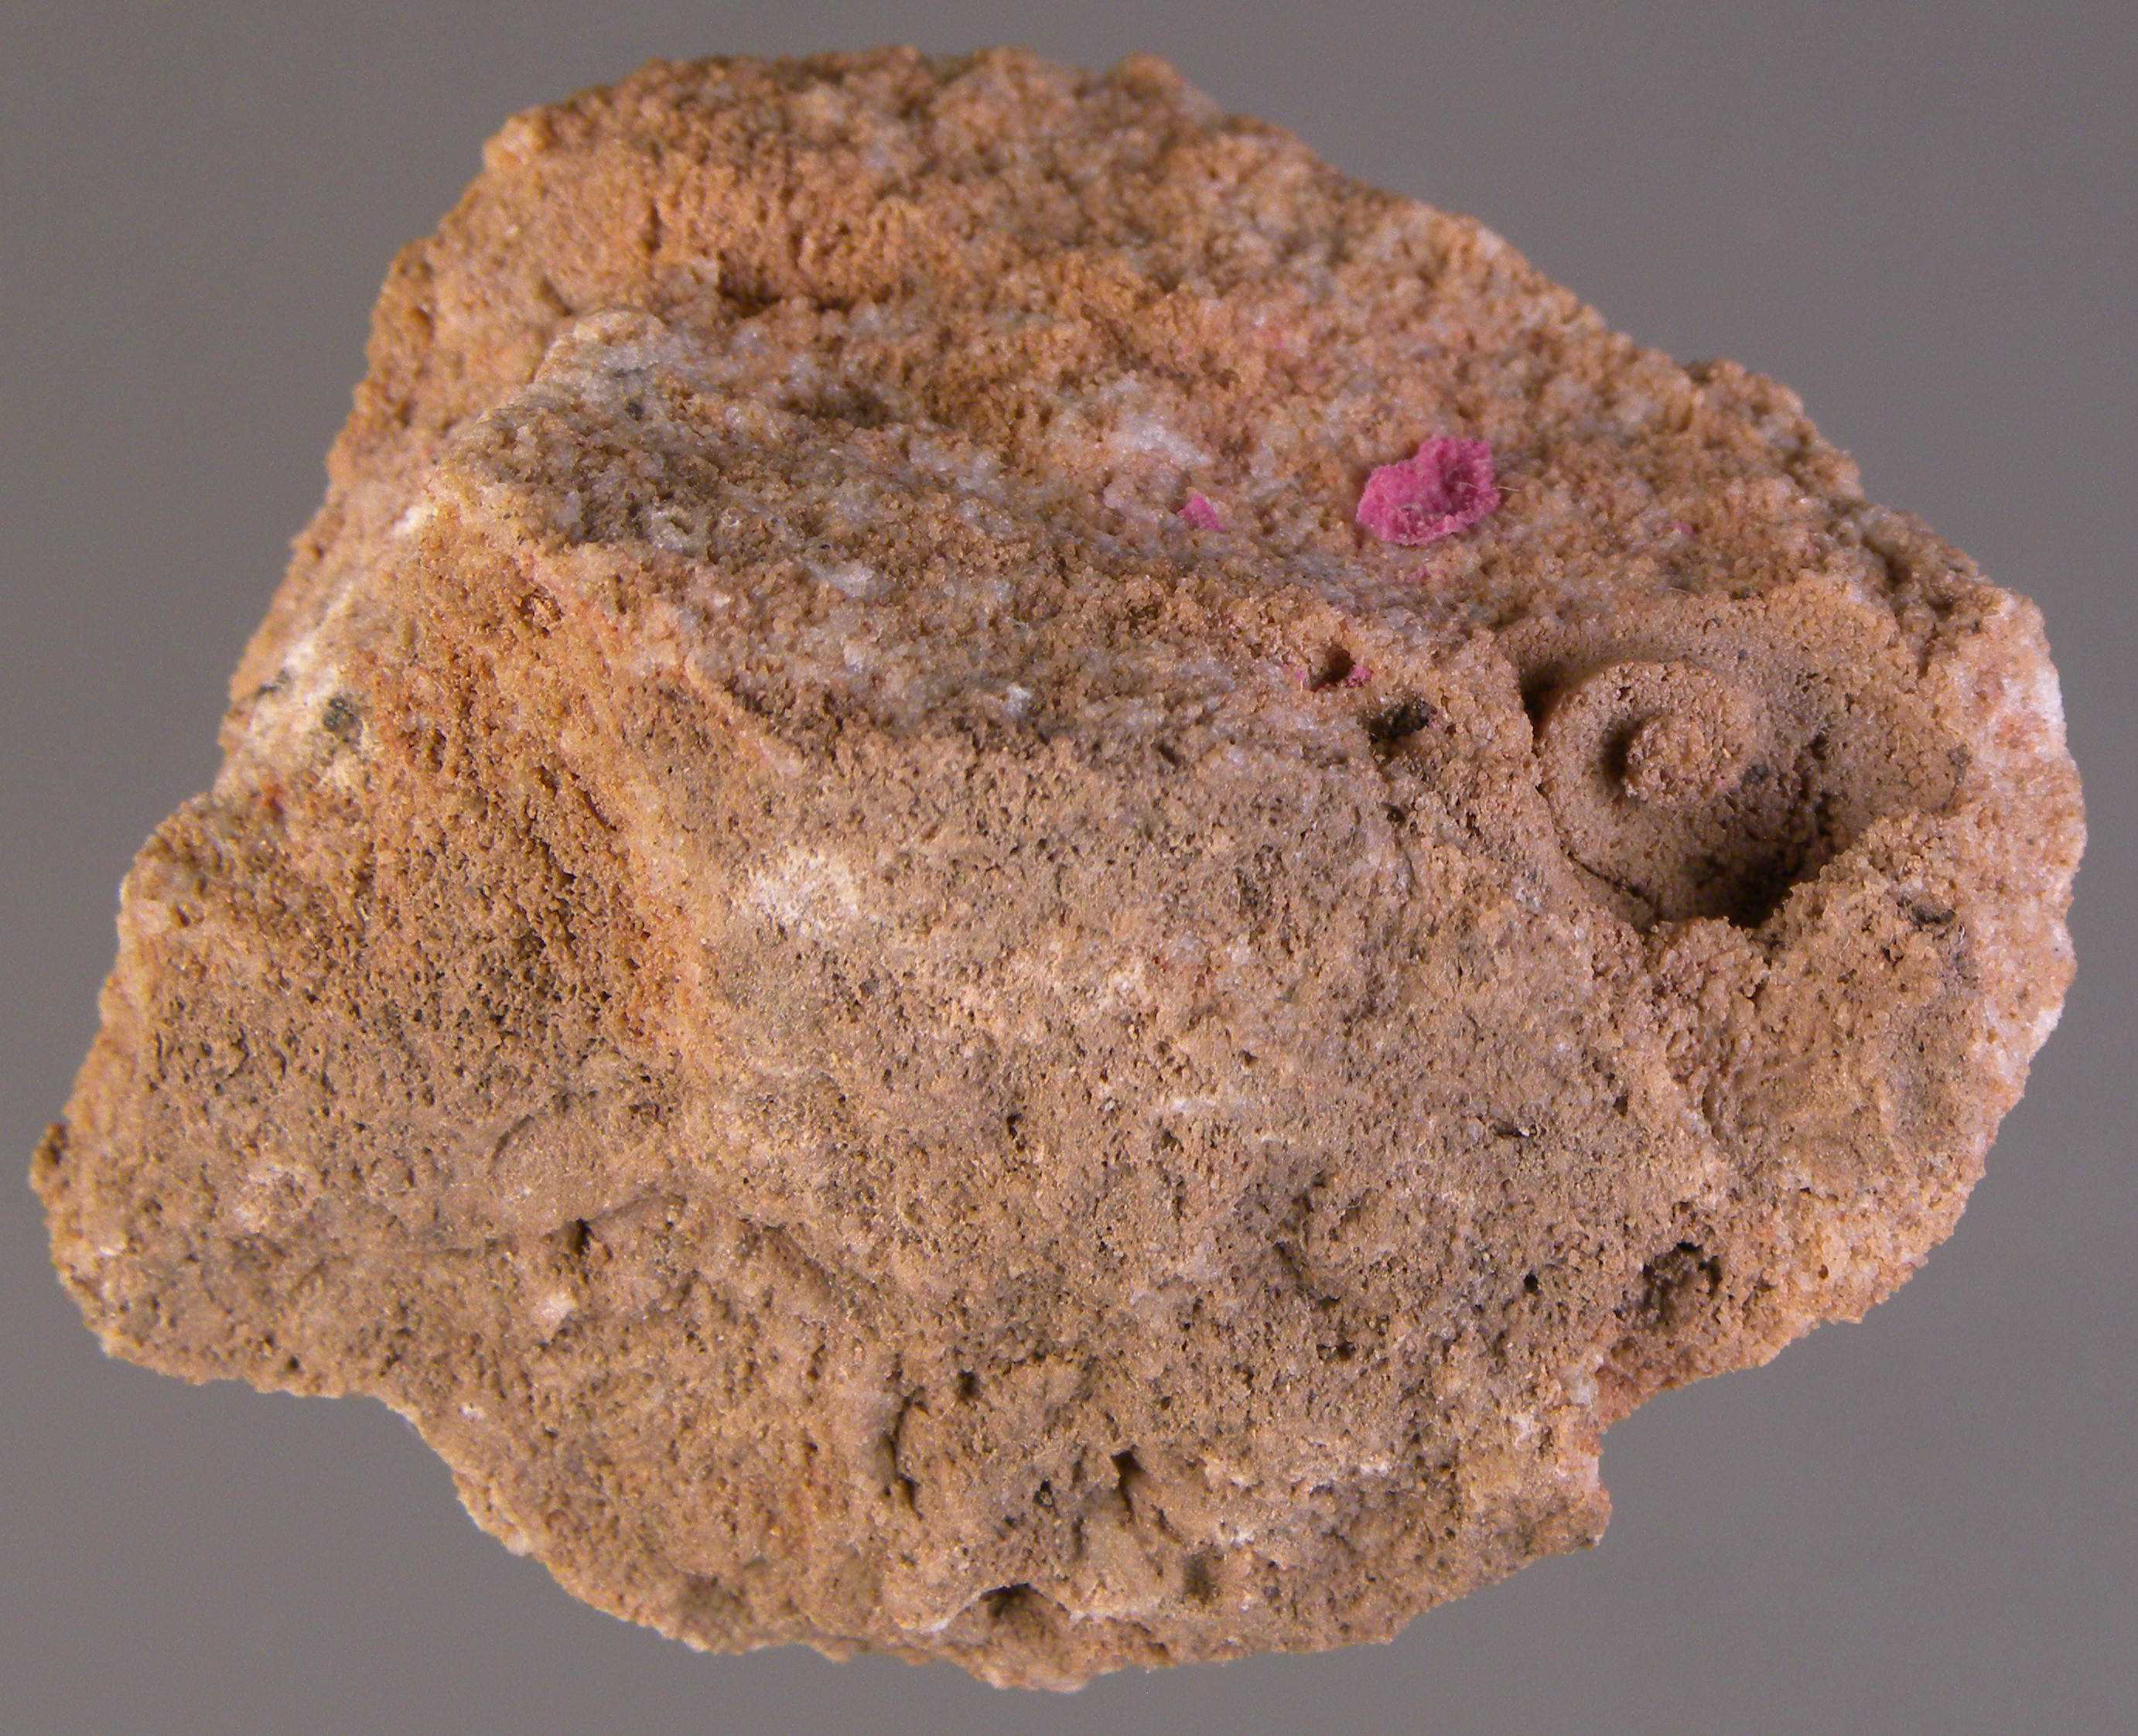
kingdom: Animalia
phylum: Mollusca
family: Tropidodiscidae
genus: Tropidodiscus
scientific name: Tropidodiscus
